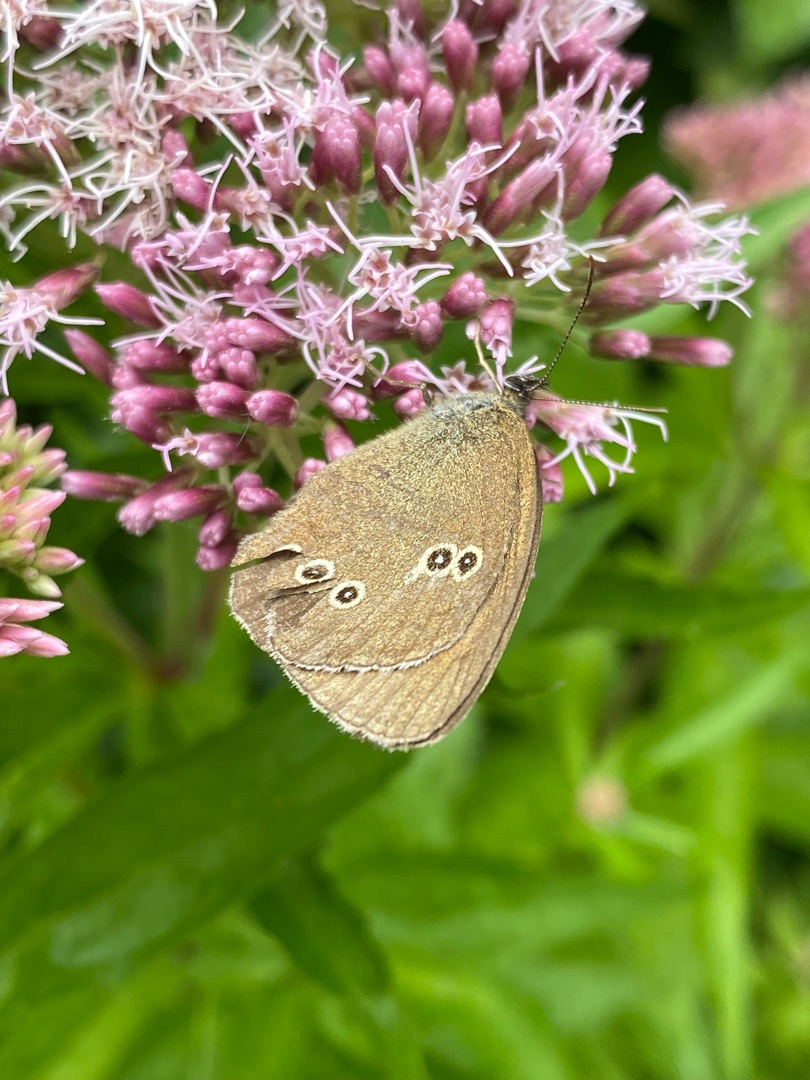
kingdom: Animalia
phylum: Arthropoda
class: Insecta
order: Lepidoptera
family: Nymphalidae
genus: Aphantopus
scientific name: Aphantopus hyperantus
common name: Engrandøje
